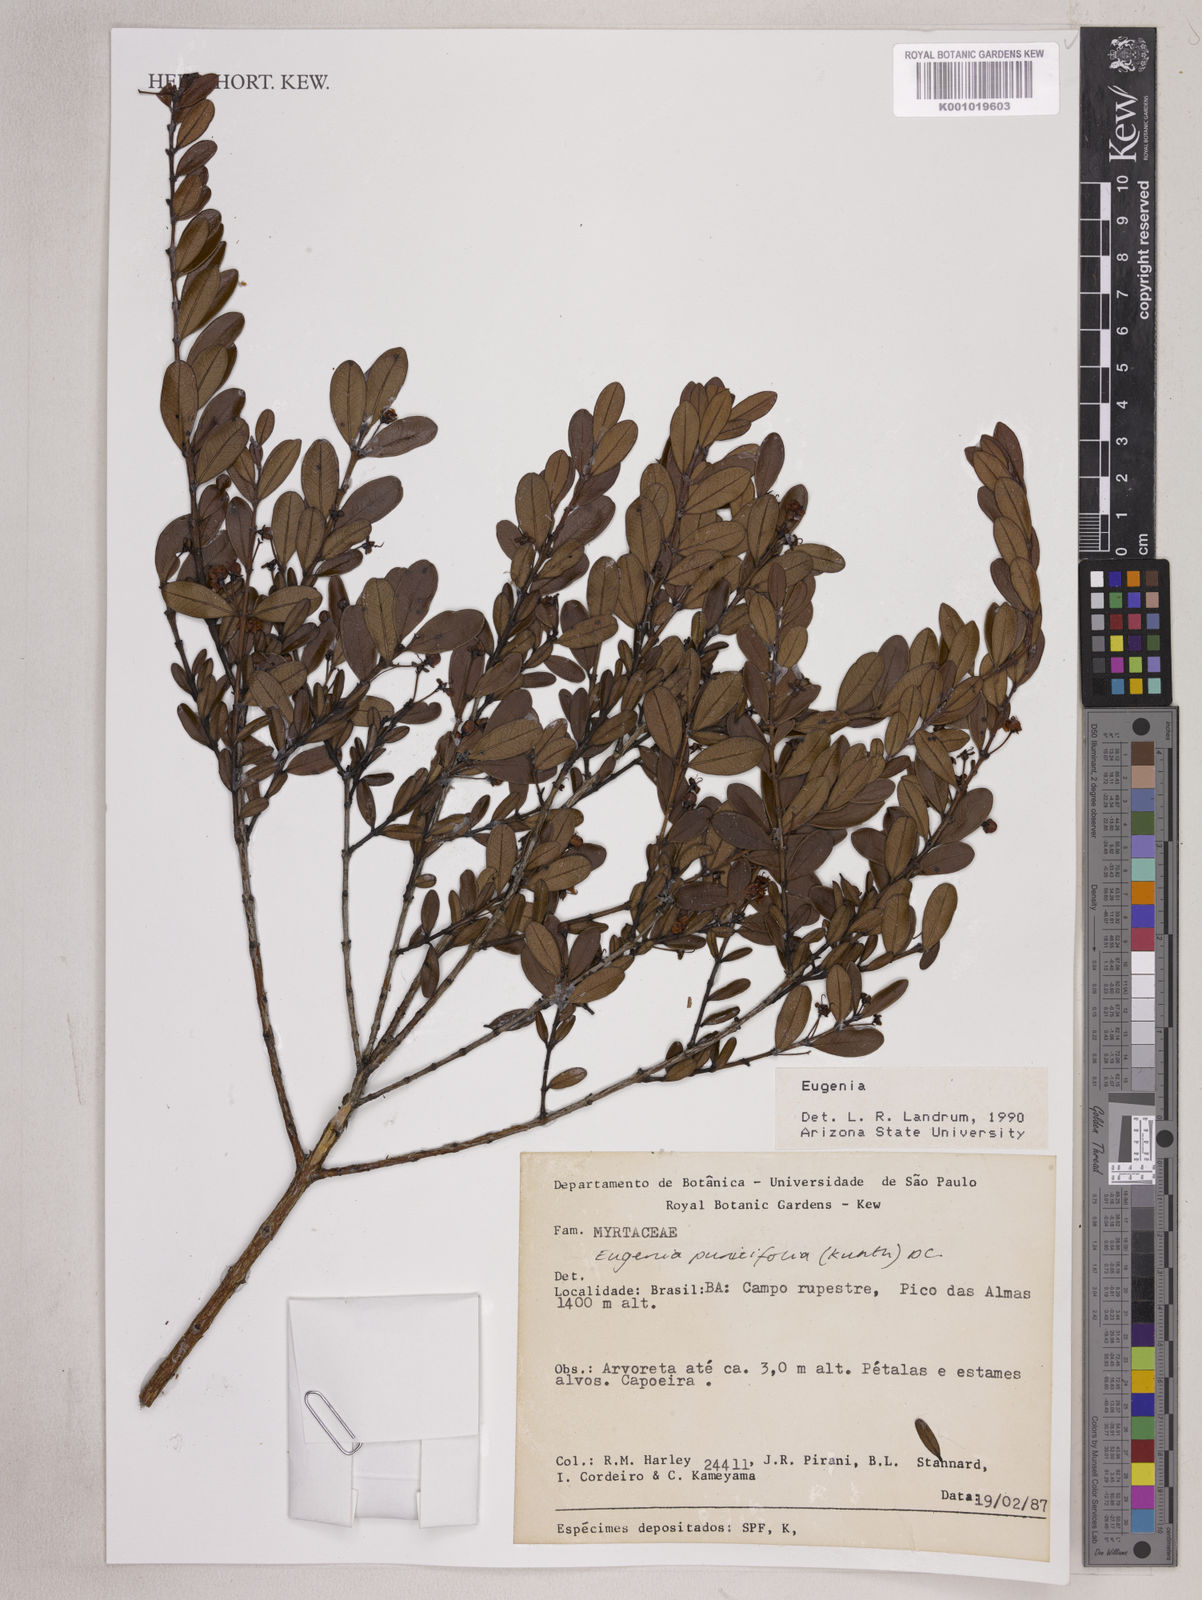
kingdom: Plantae
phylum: Tracheophyta
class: Magnoliopsida
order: Myrtales
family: Myrtaceae
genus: Eugenia
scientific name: Eugenia punicifolia
